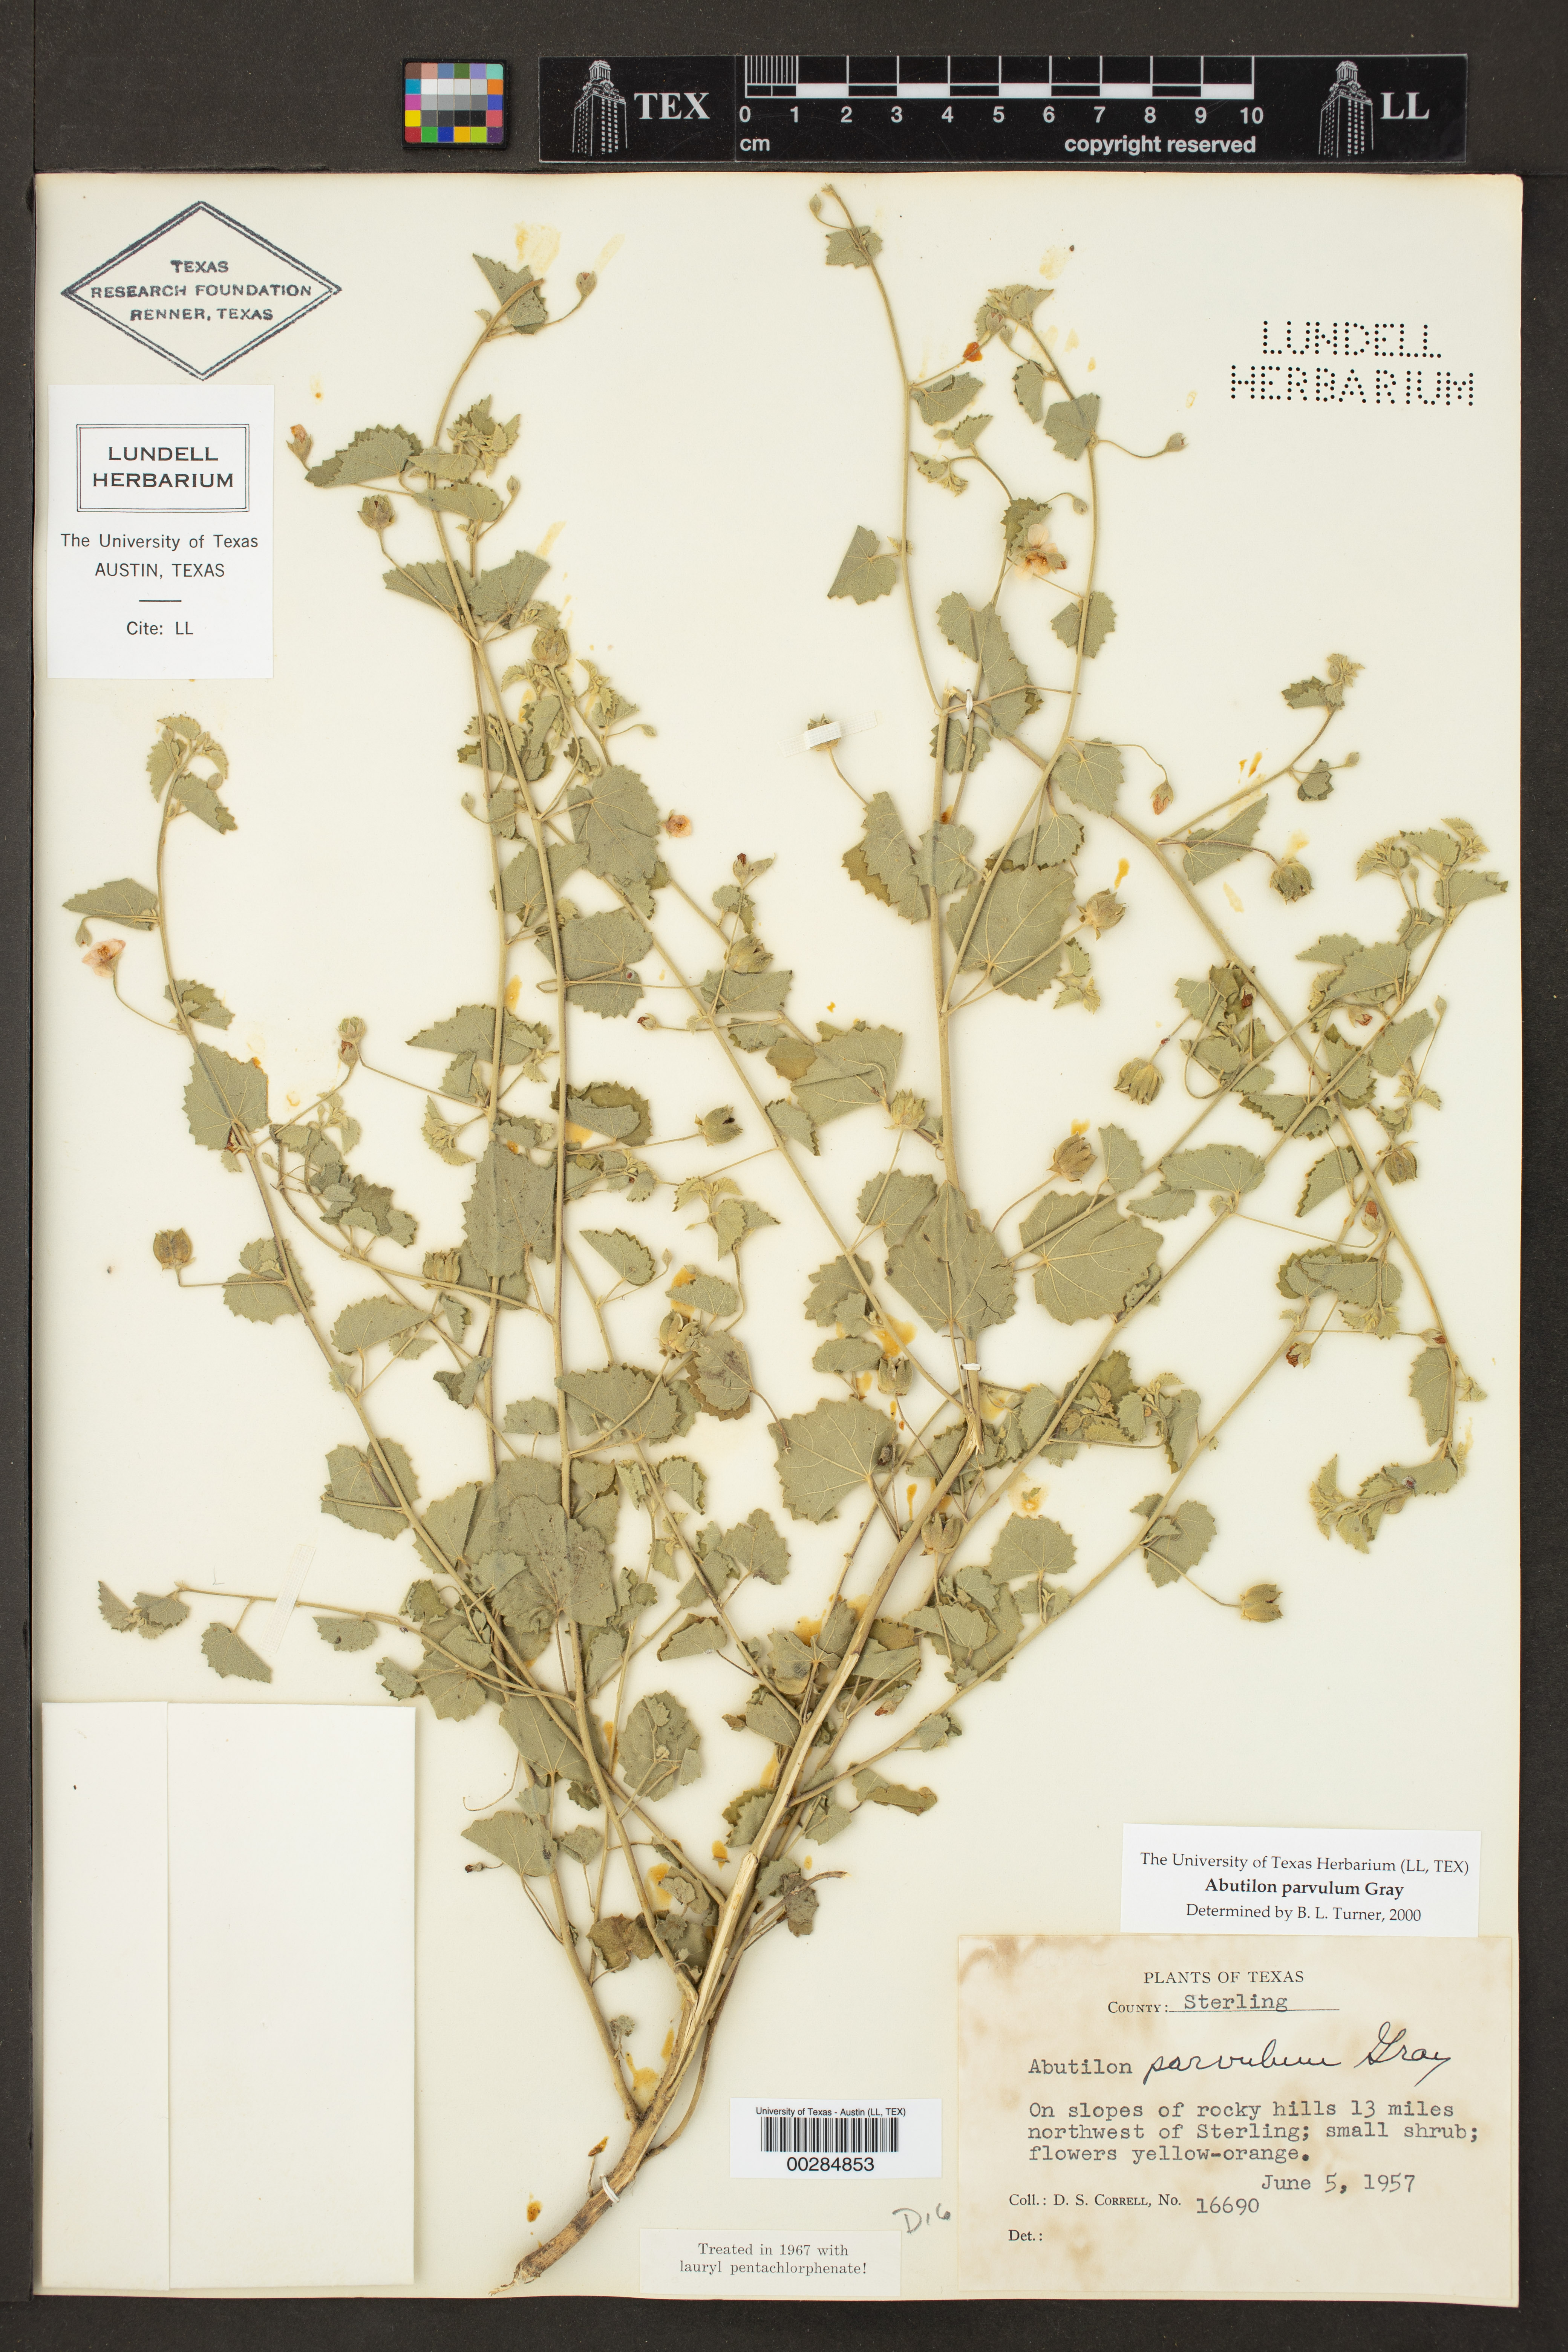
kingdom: Plantae
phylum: Tracheophyta
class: Magnoliopsida
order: Malvales
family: Malvaceae
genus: Abutilon
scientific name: Abutilon parvulum
